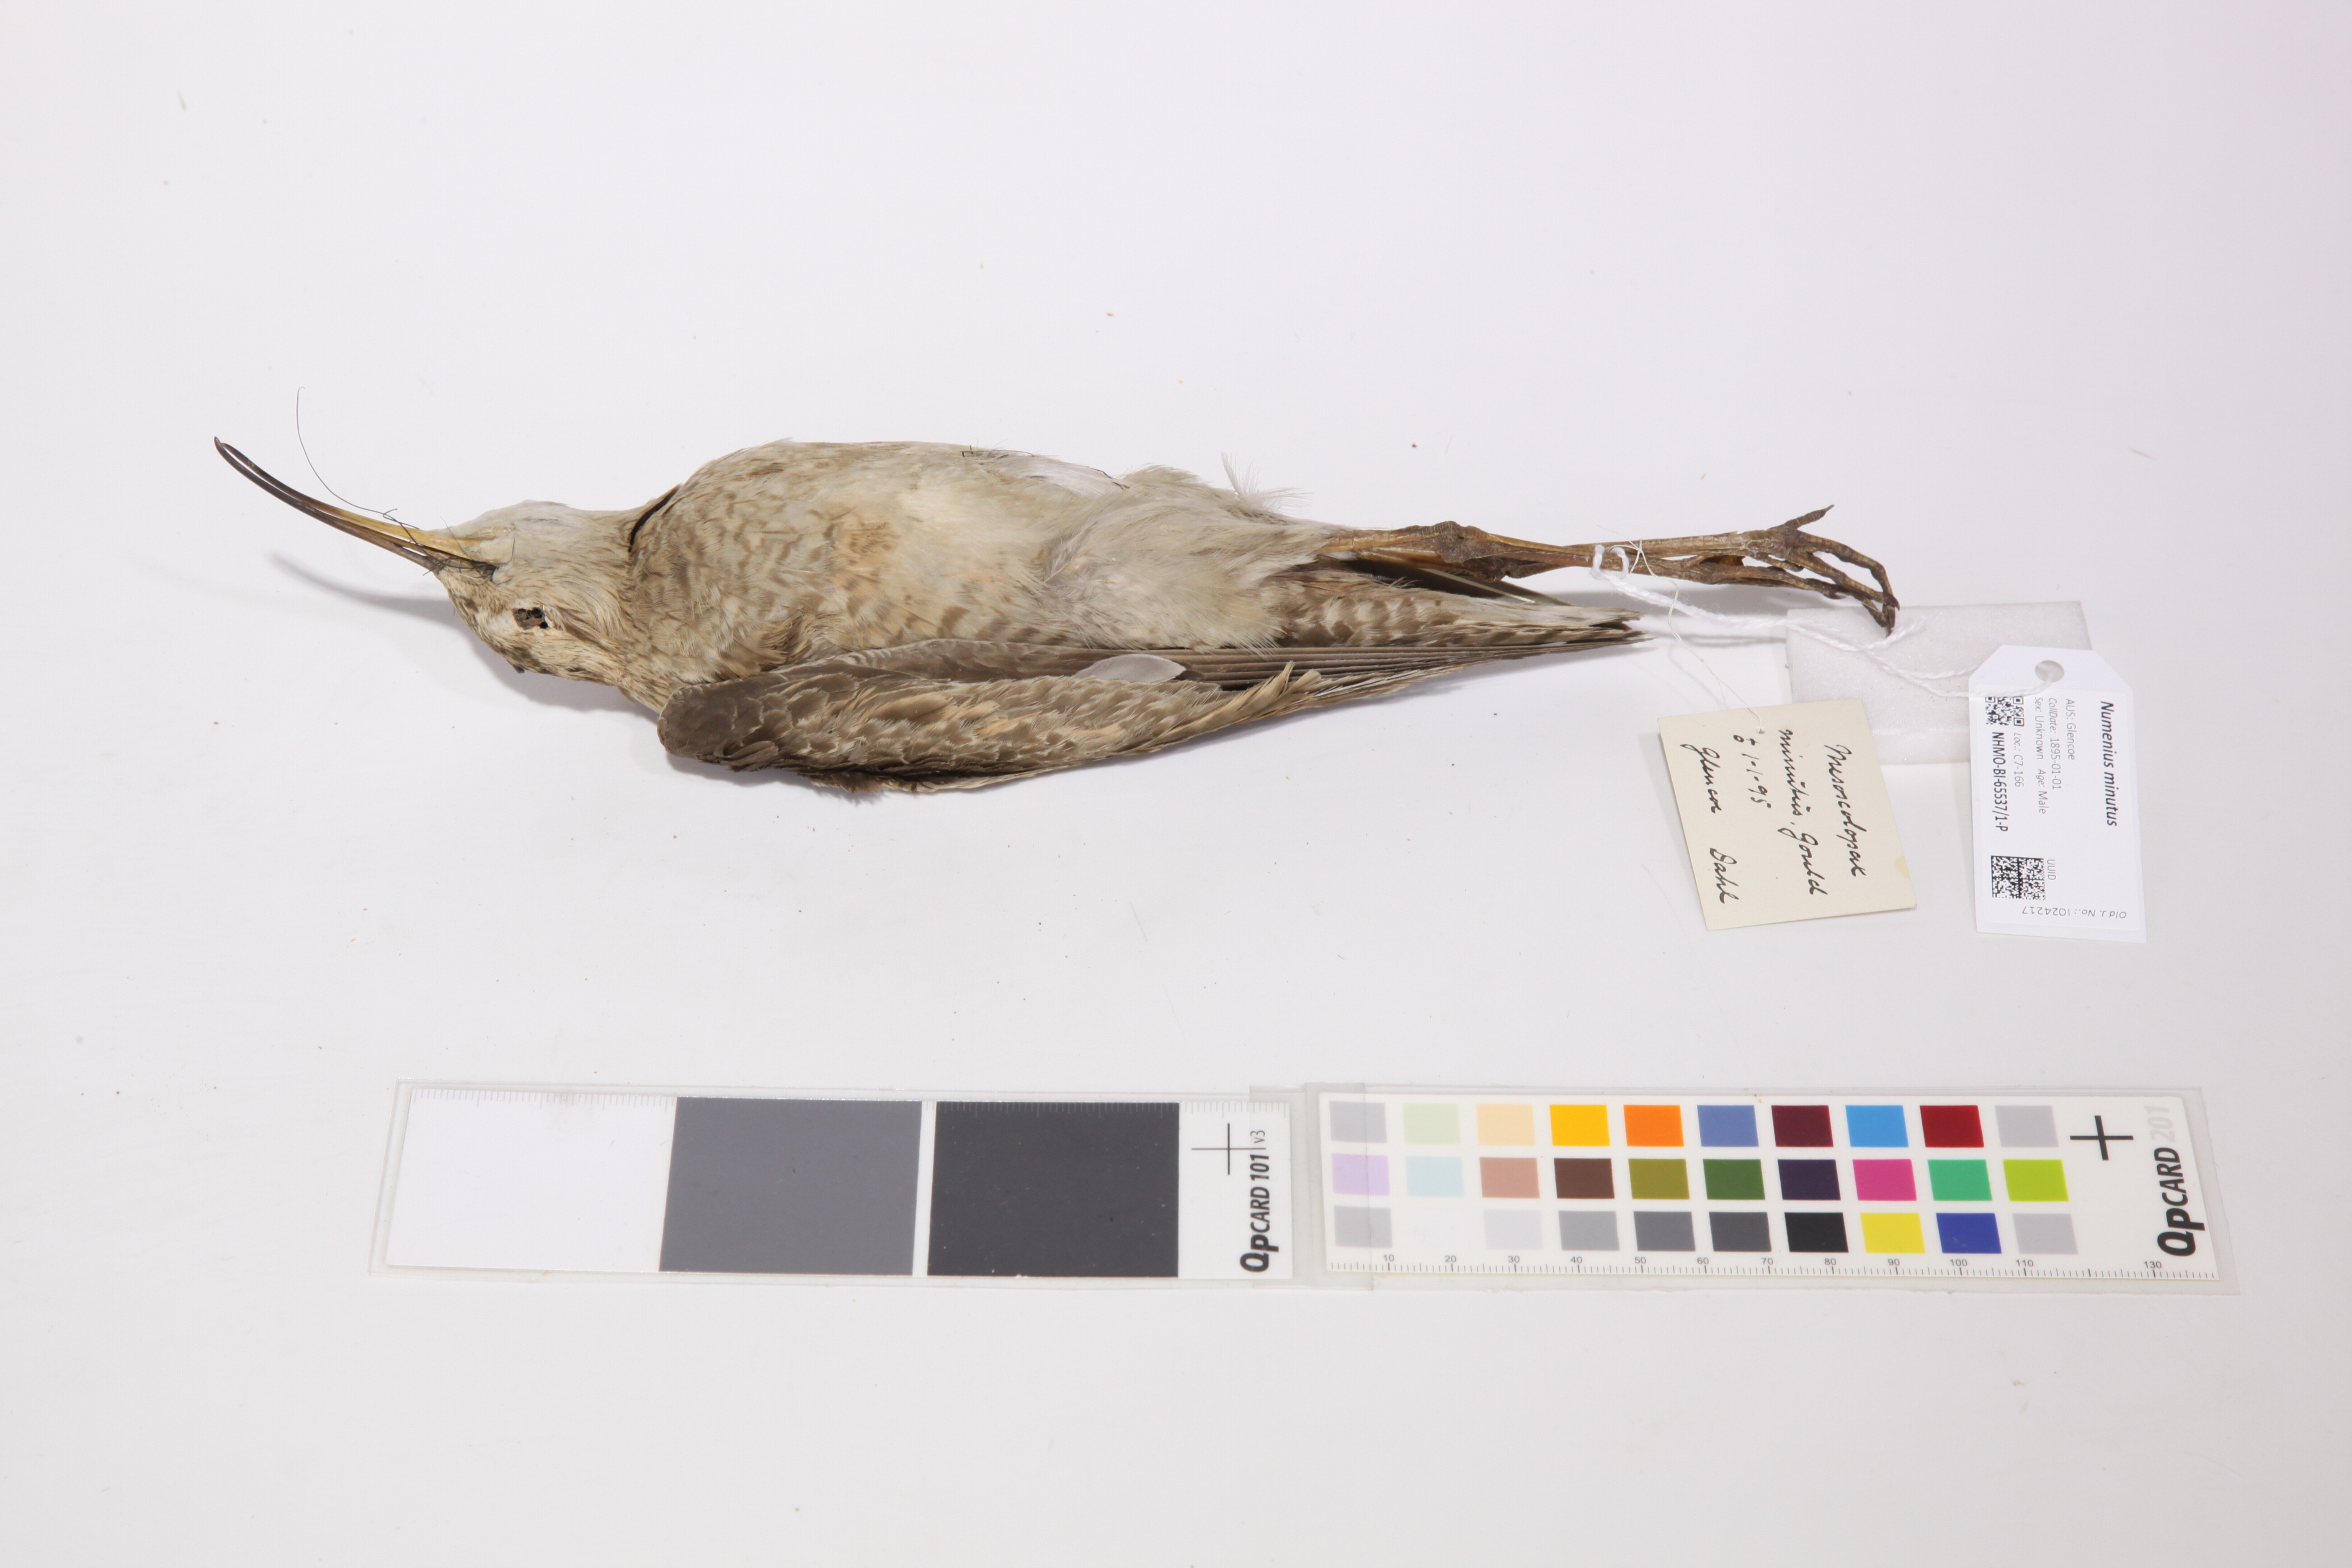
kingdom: Animalia
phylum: Chordata
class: Aves
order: Charadriiformes
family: Scolopacidae
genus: Numenius
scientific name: Numenius minutus
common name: Little curlew
